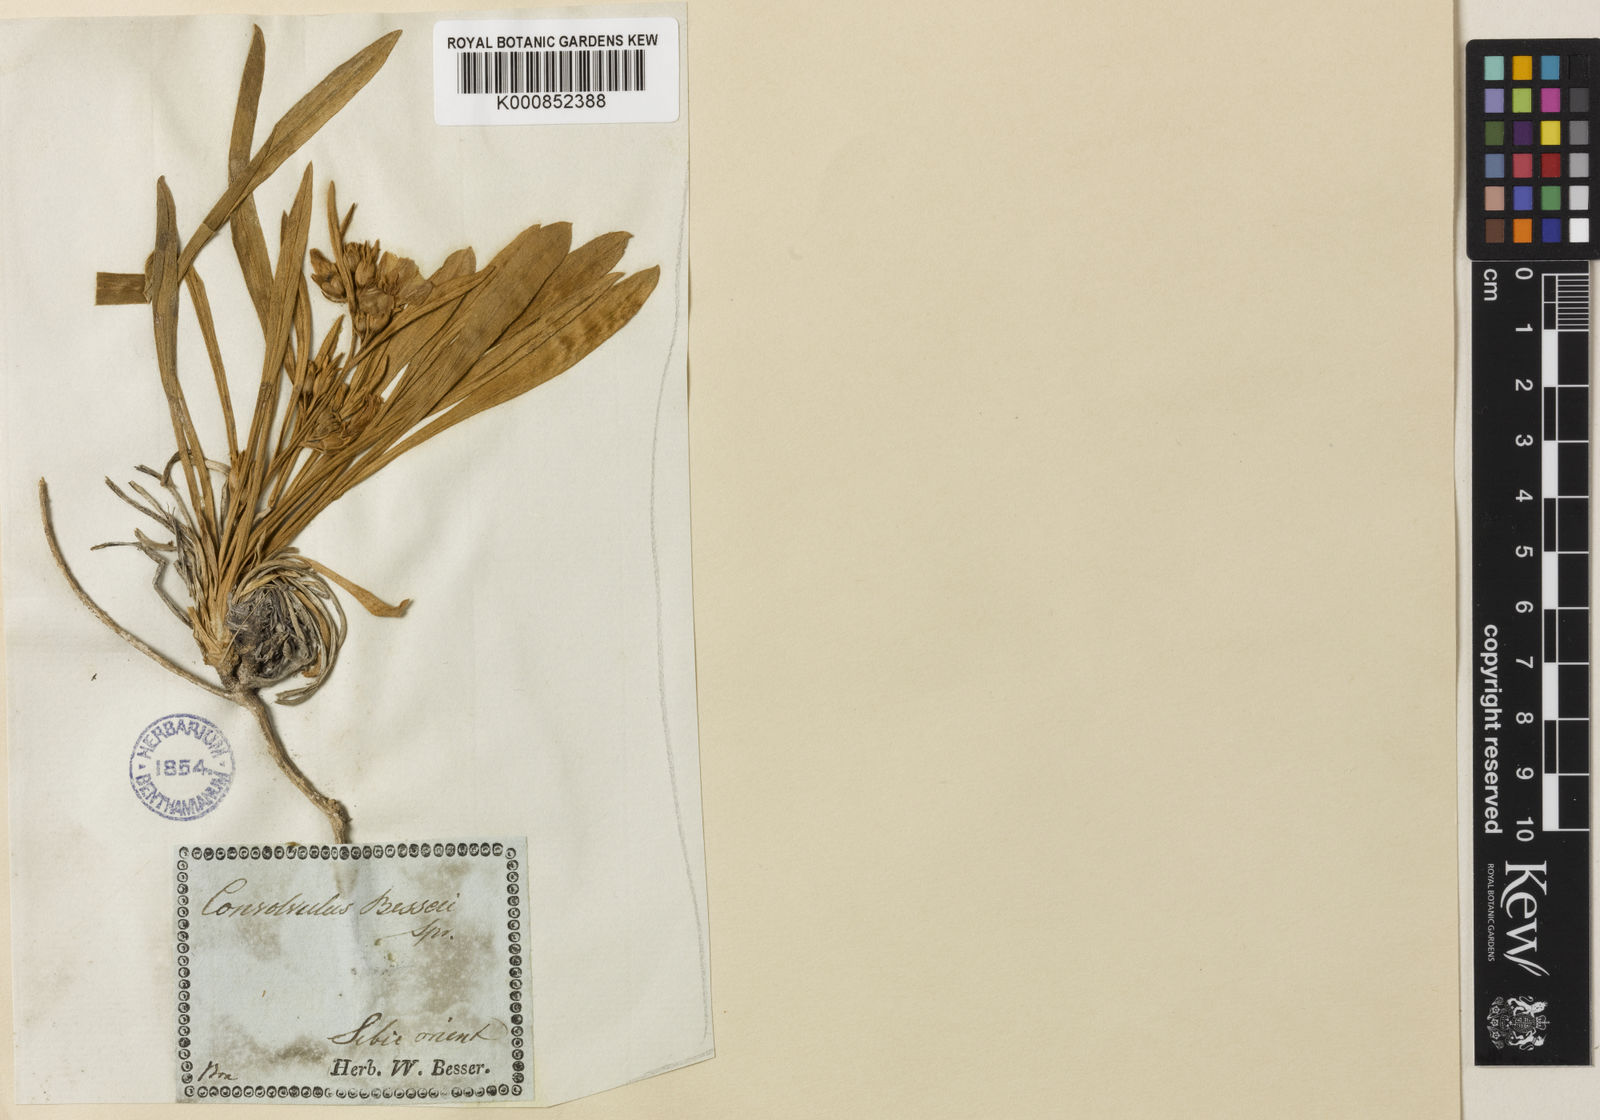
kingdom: Plantae
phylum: Tracheophyta
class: Magnoliopsida
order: Solanales
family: Convolvulaceae
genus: Convolvulus
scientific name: Convolvulus lineatus
